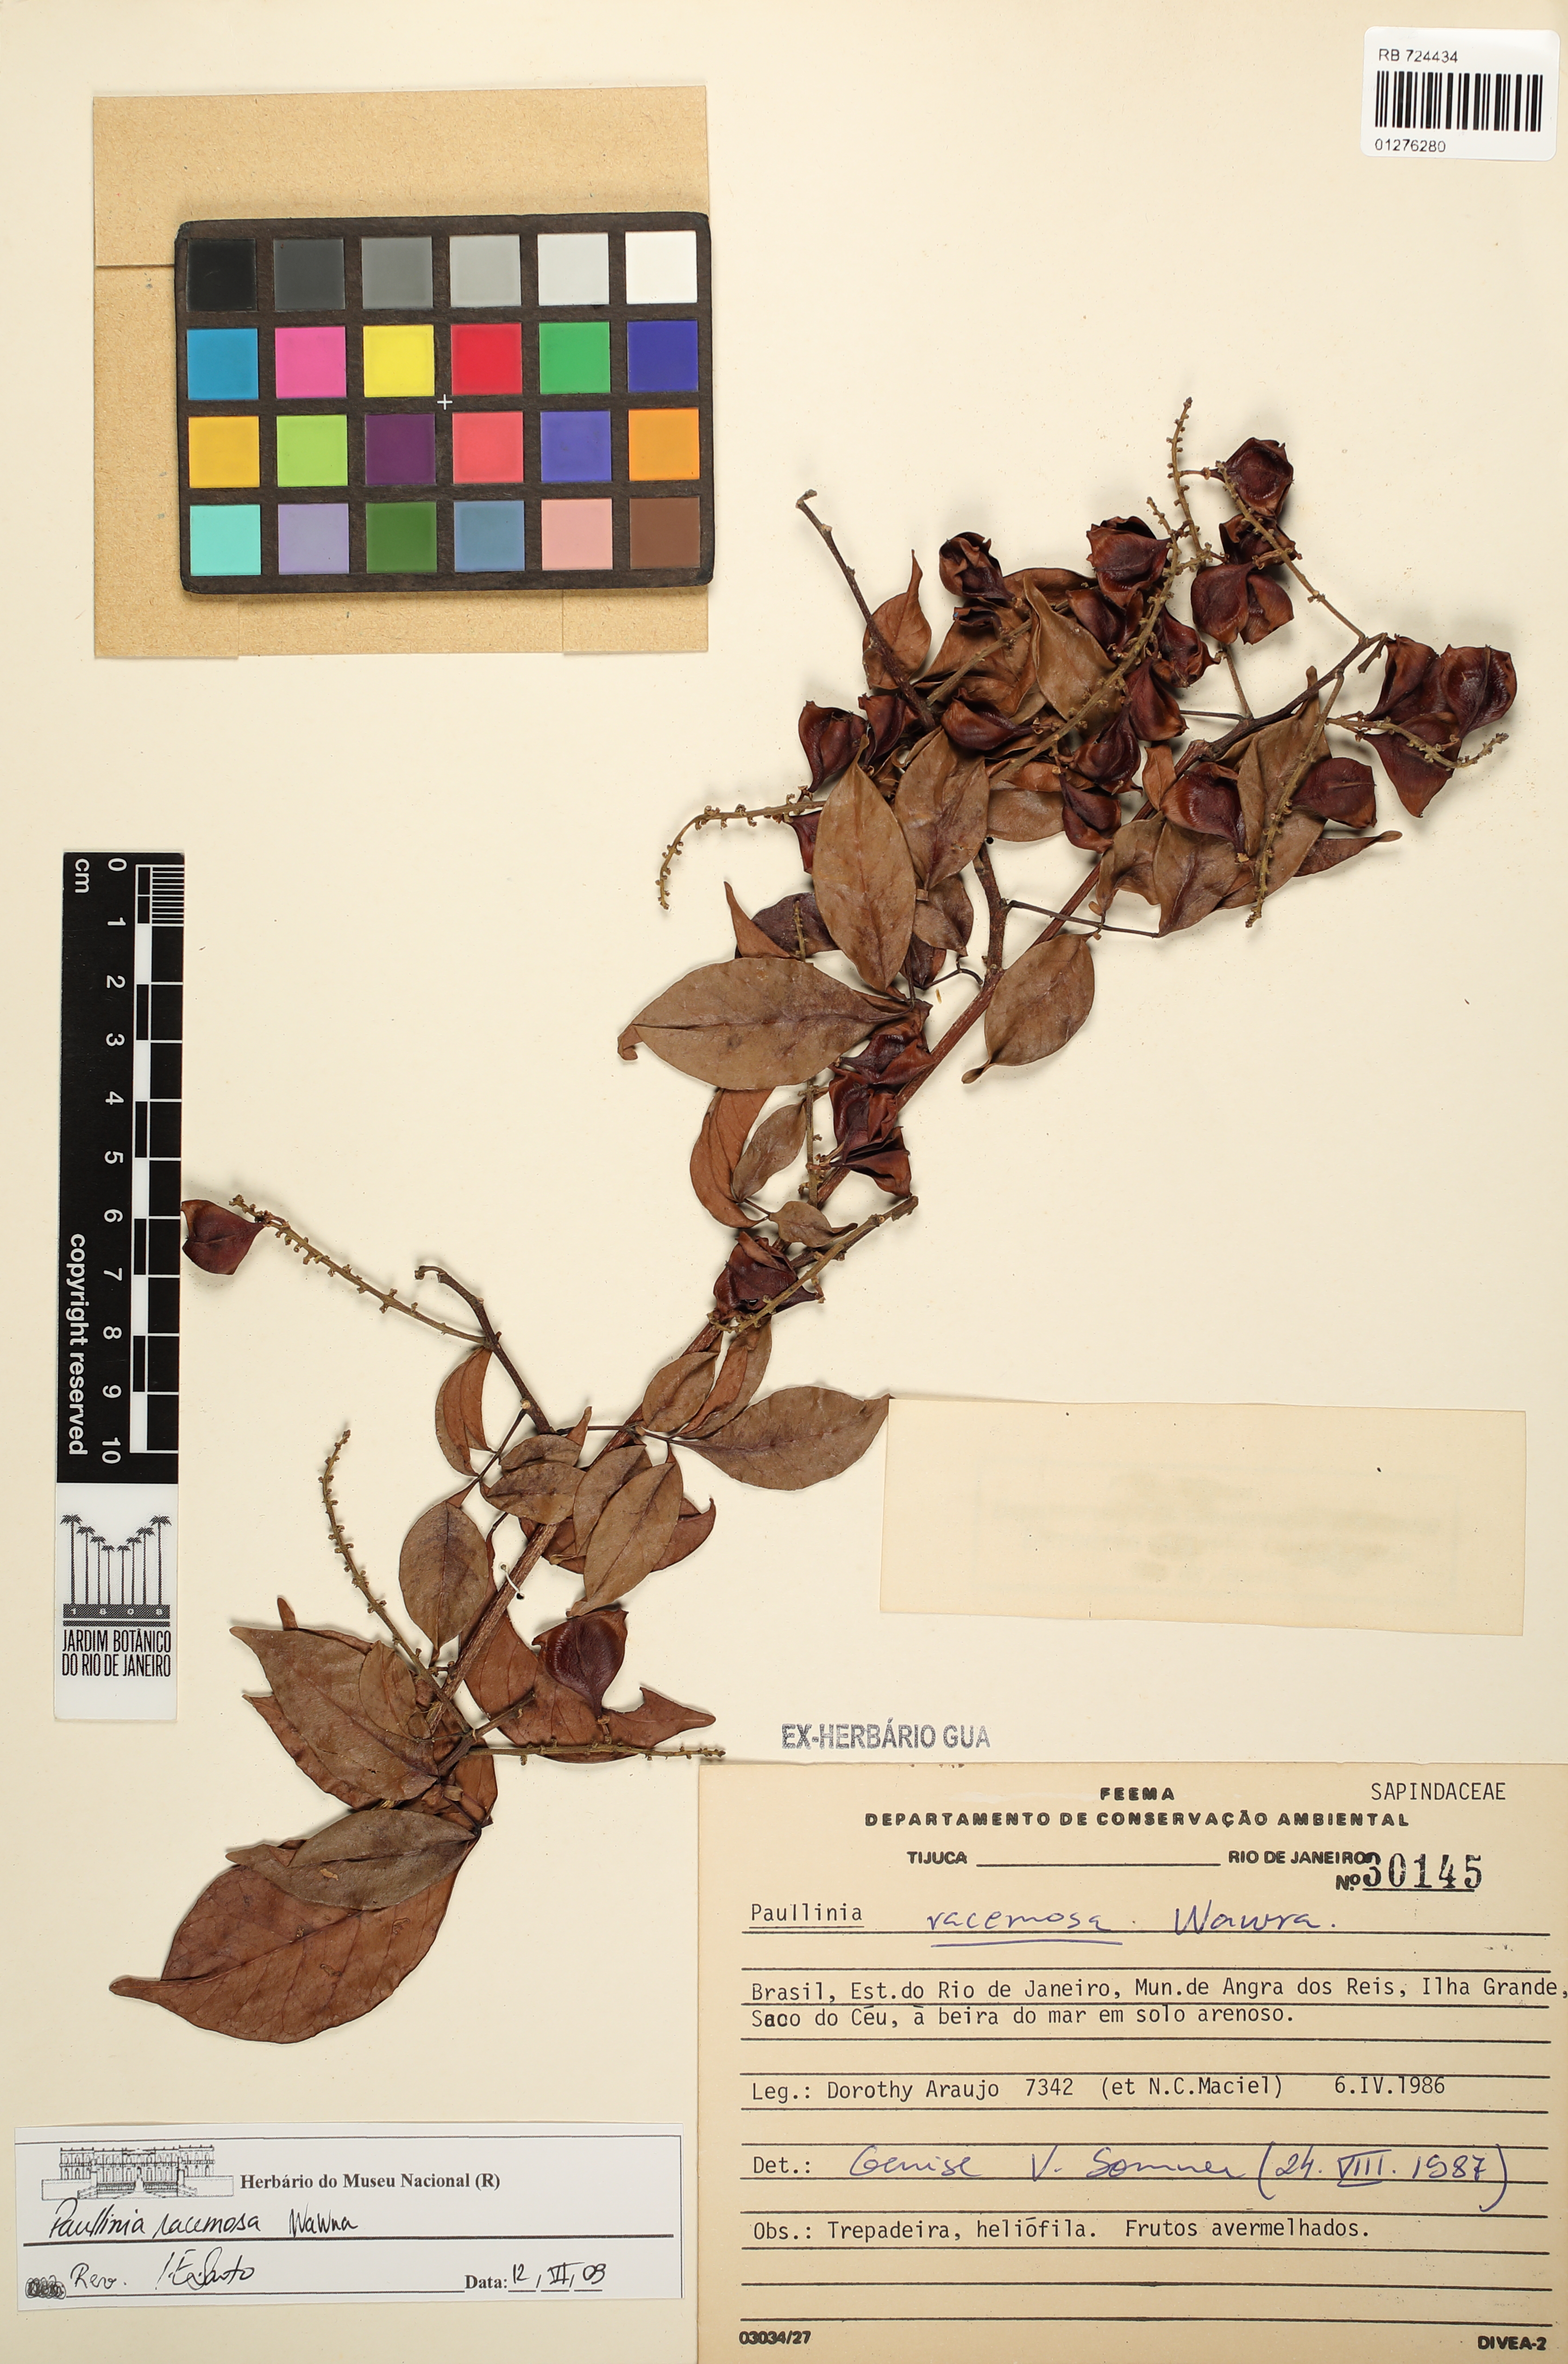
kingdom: Plantae
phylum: Tracheophyta
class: Magnoliopsida
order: Sapindales
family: Sapindaceae
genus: Paullinia
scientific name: Paullinia racemosa
